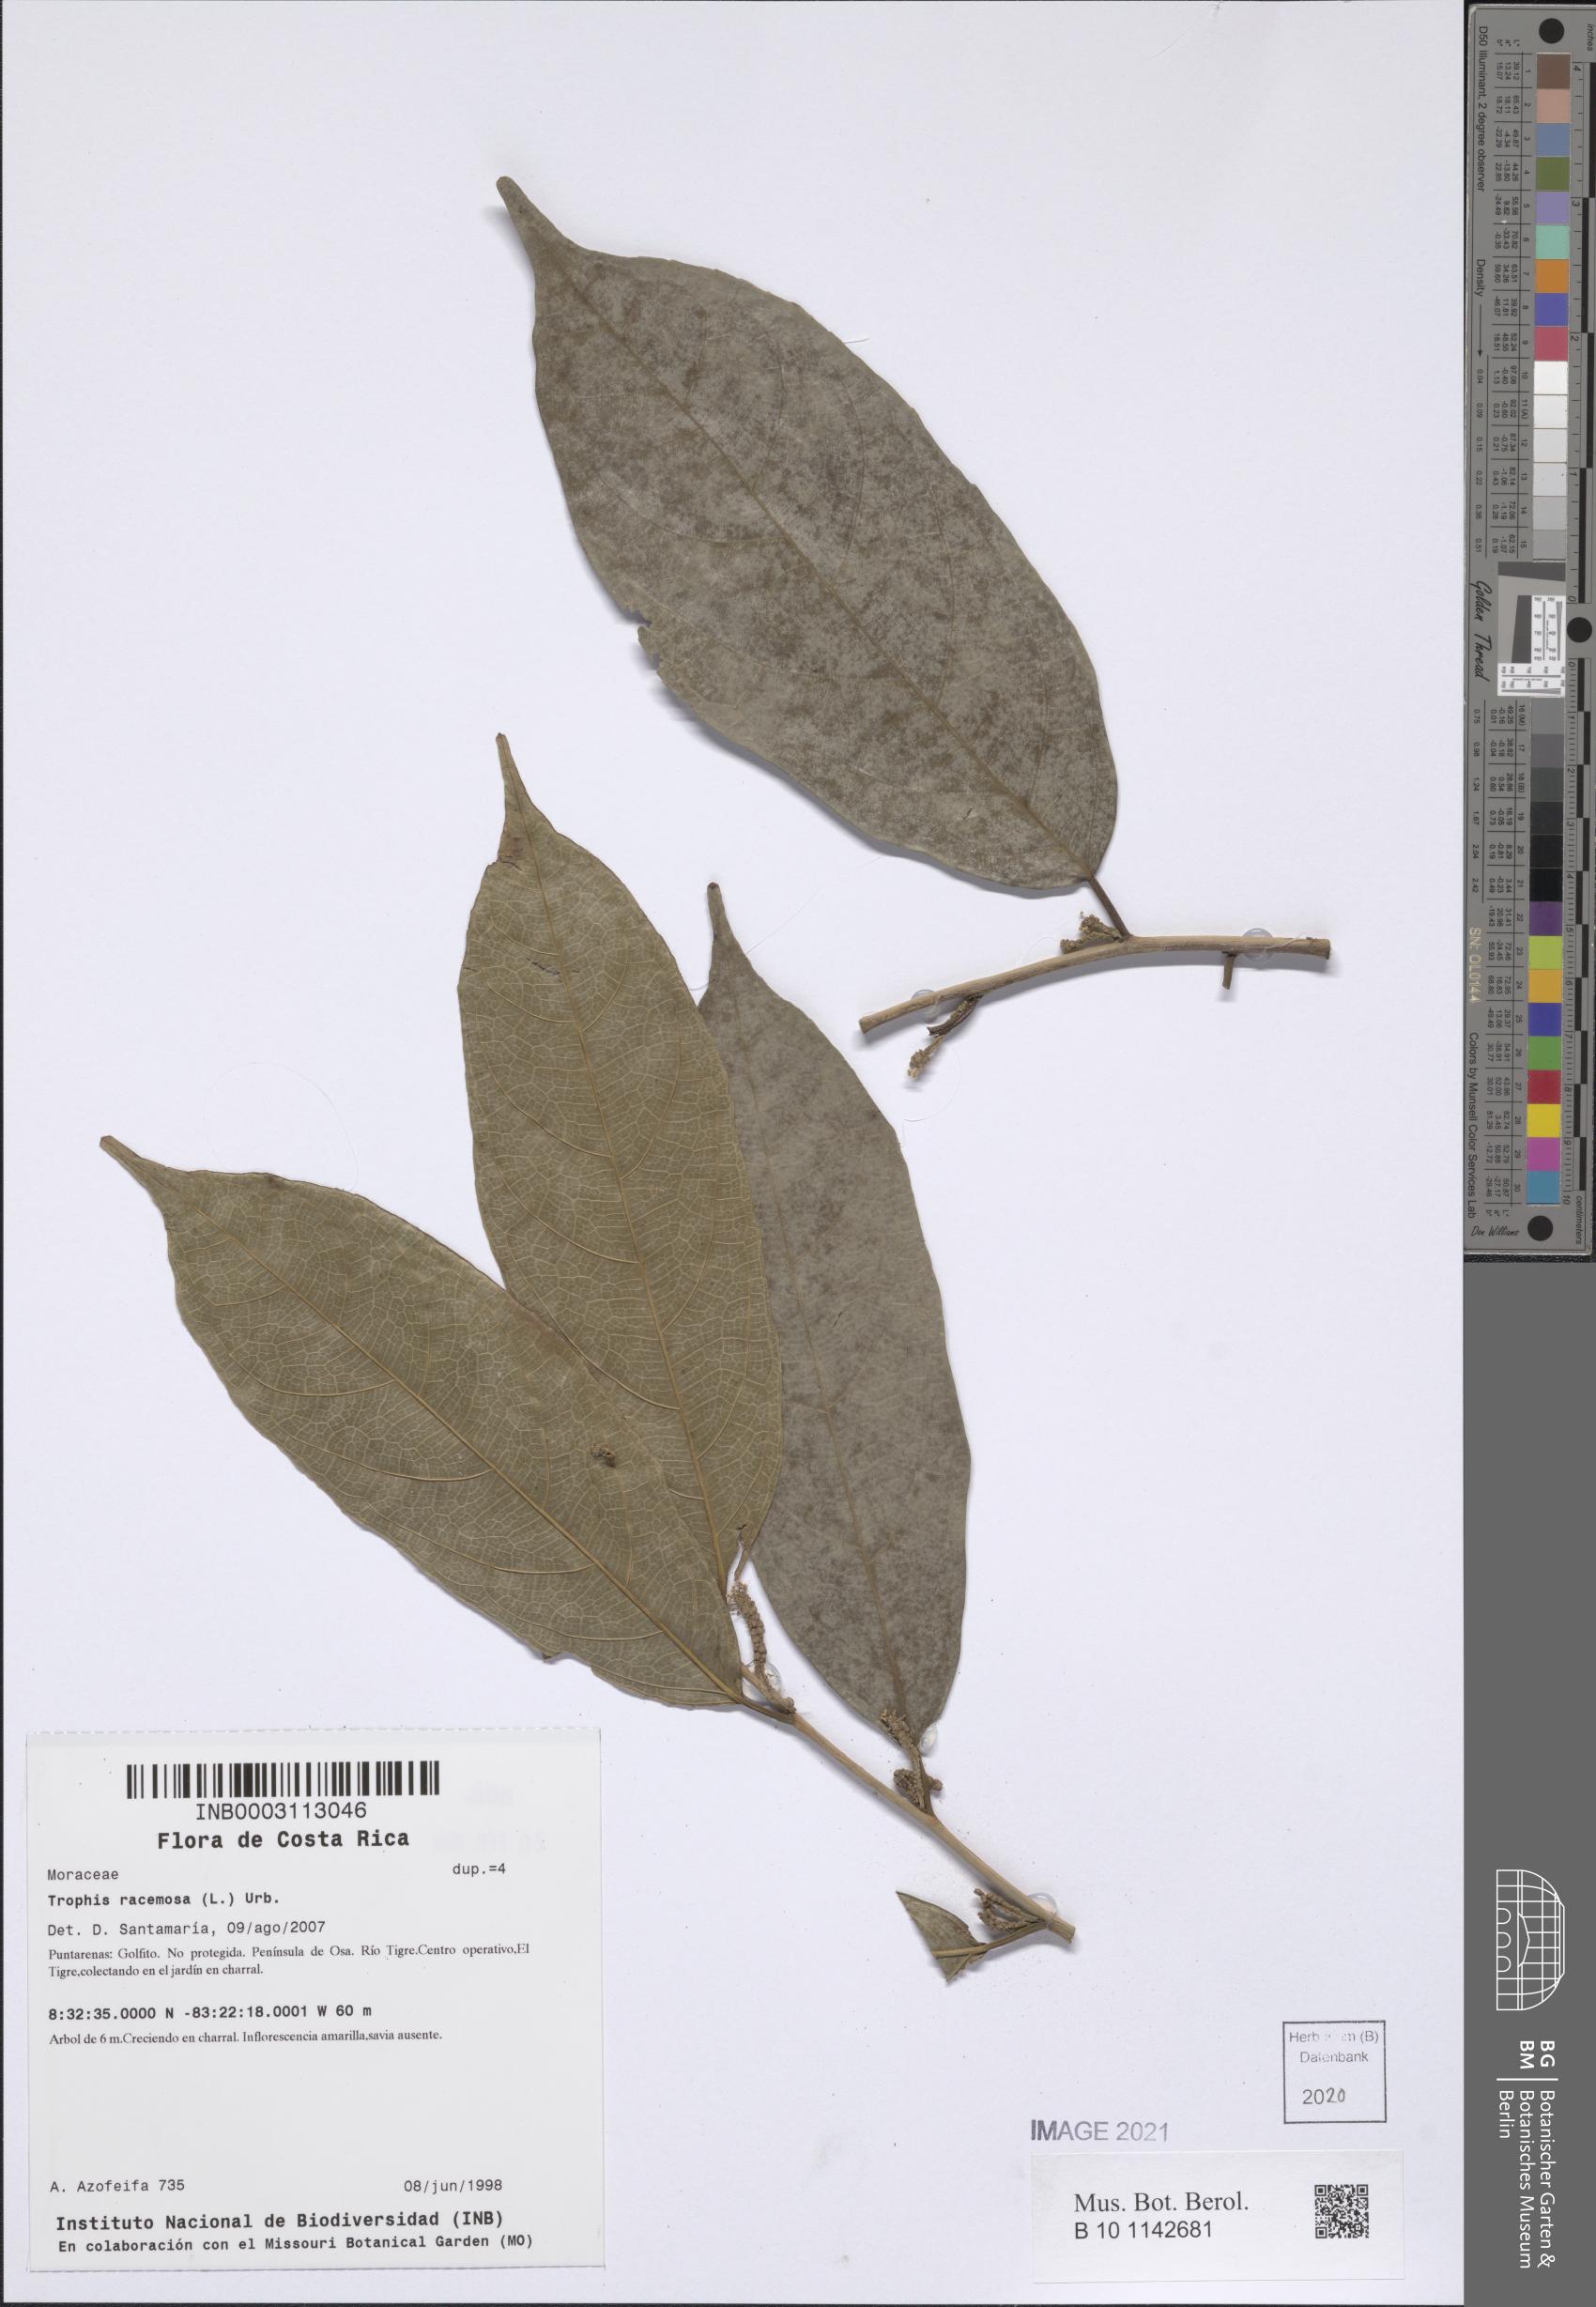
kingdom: Plantae
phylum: Tracheophyta
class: Magnoliopsida
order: Rosales
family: Moraceae
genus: Trophis
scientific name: Trophis racemosa
